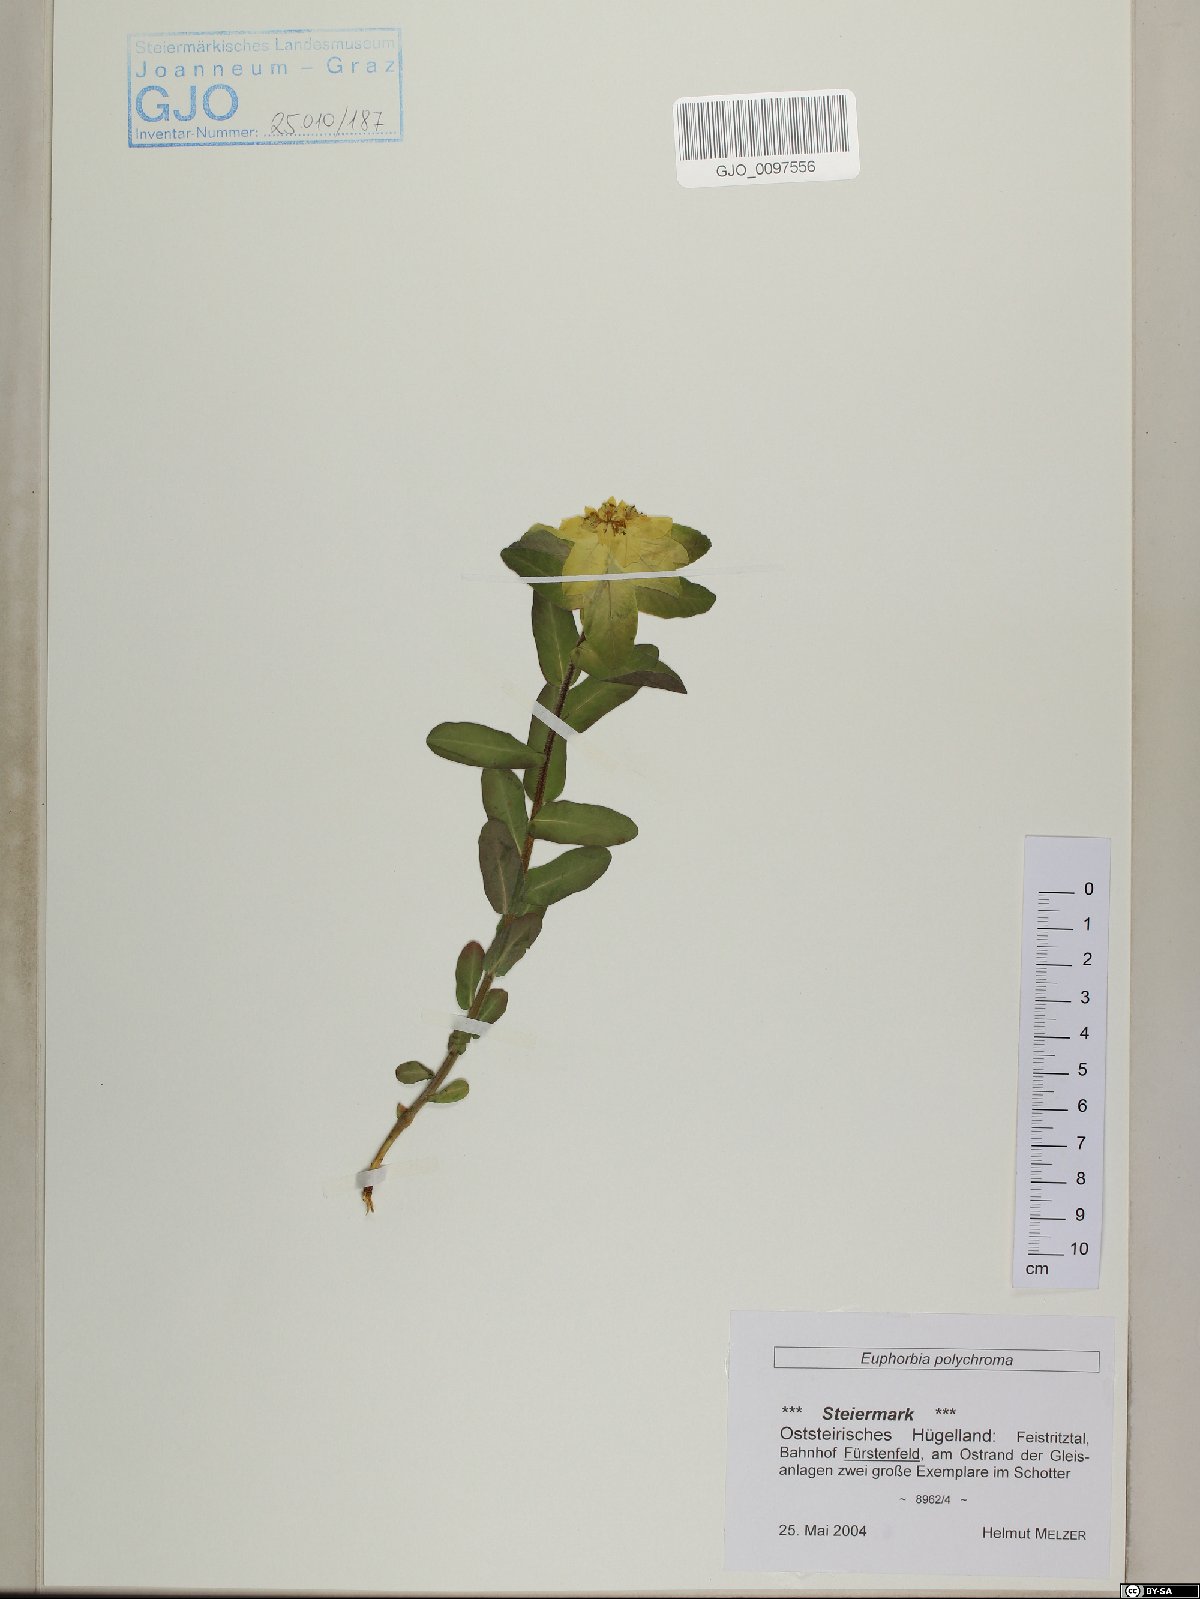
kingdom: Plantae
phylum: Tracheophyta
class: Magnoliopsida
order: Malpighiales
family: Euphorbiaceae
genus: Euphorbia
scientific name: Euphorbia epithymoides
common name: Cushion spurge
